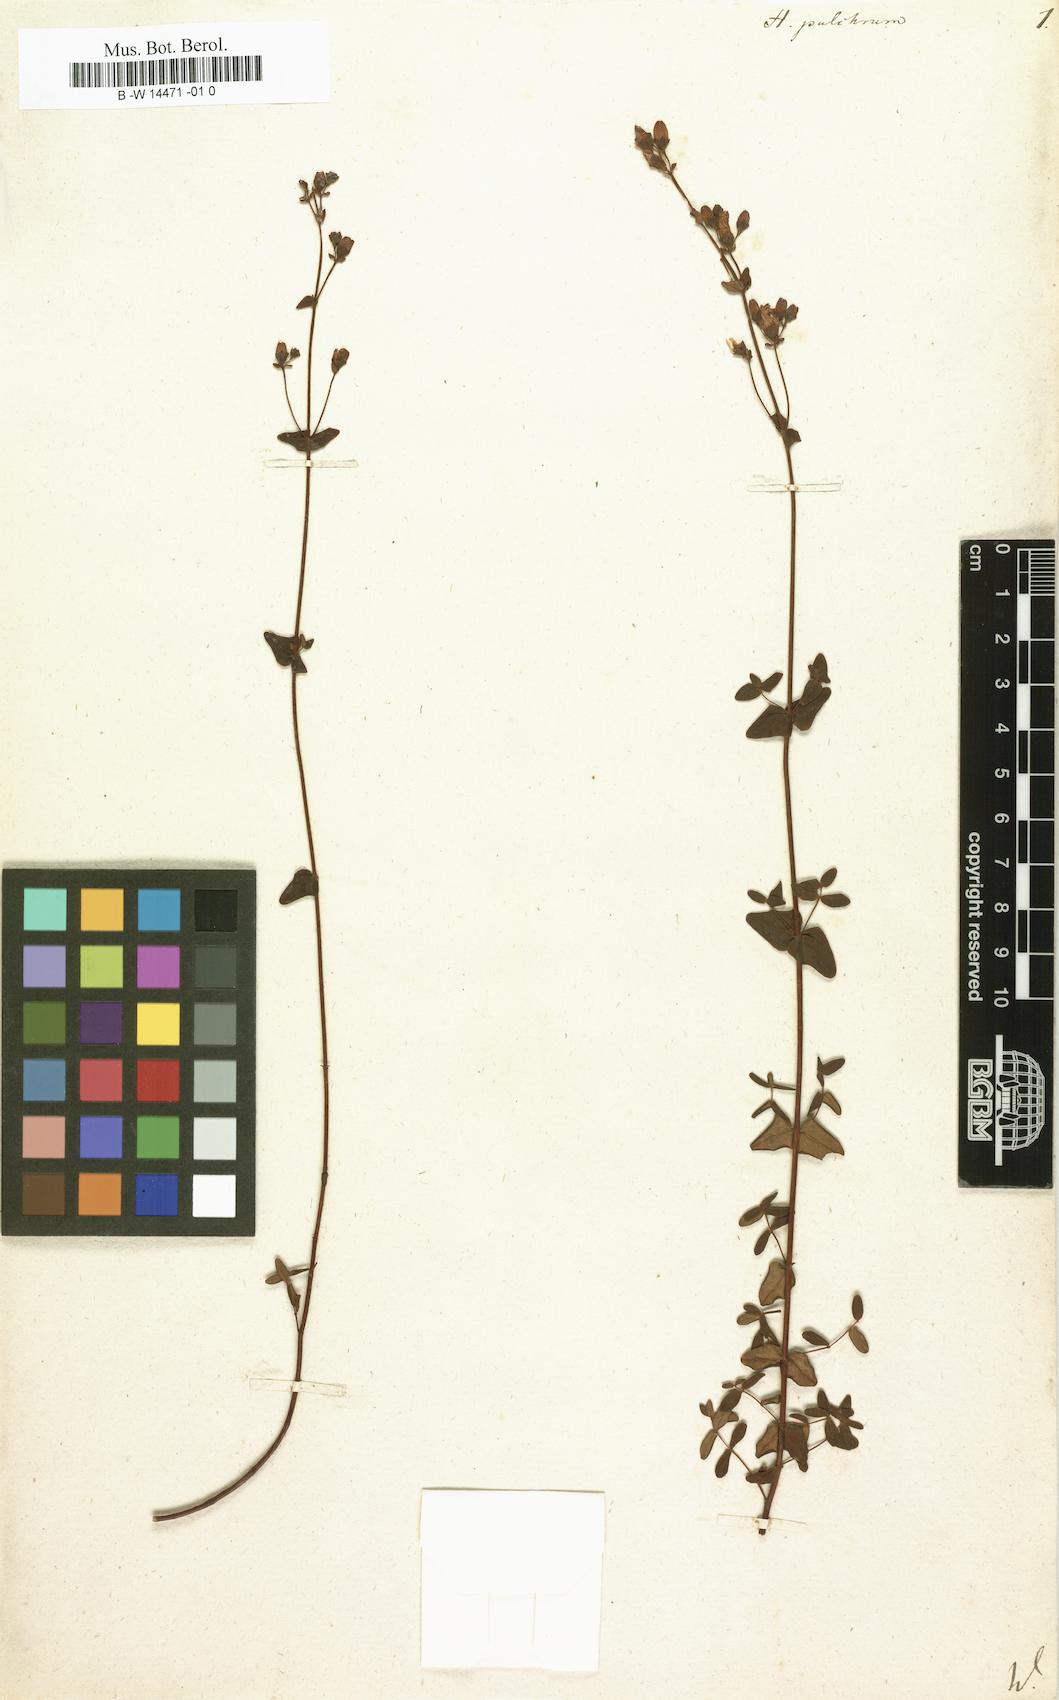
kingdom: Plantae
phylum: Tracheophyta
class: Magnoliopsida
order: Malpighiales
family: Hypericaceae
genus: Hypericum
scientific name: Hypericum pulchrum
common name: Slender st. john's-wort
